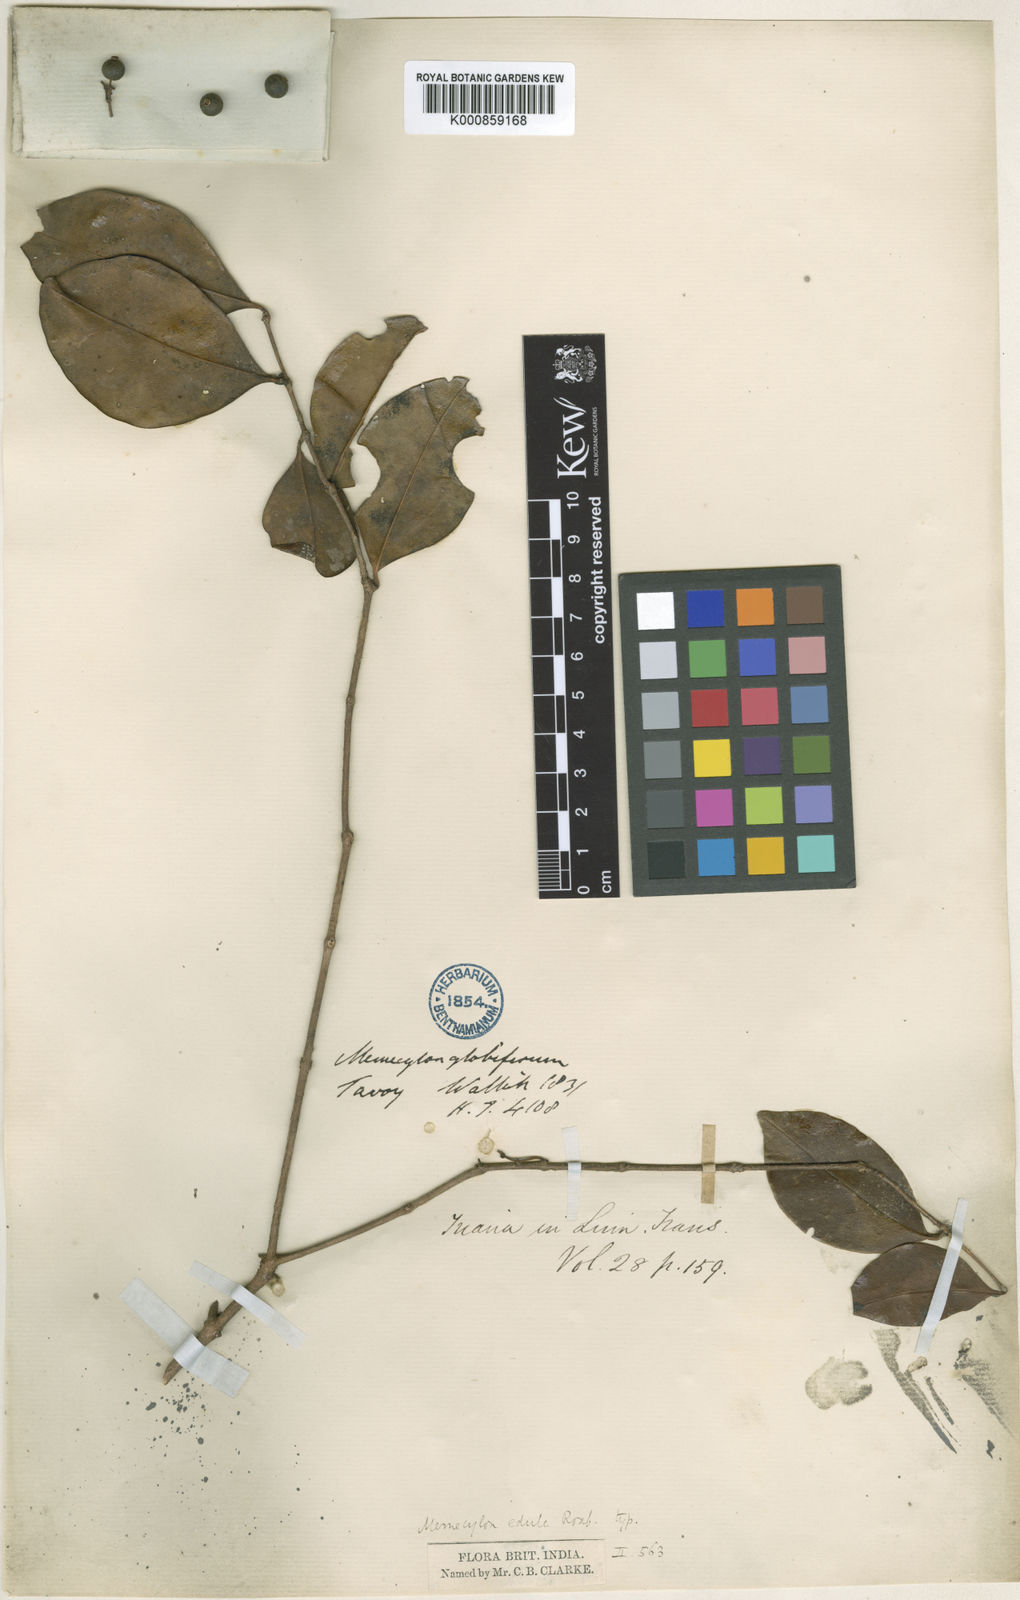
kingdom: Plantae
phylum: Tracheophyta
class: Magnoliopsida
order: Myrtales
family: Melastomataceae
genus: Memecylon
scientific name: Memecylon edule
